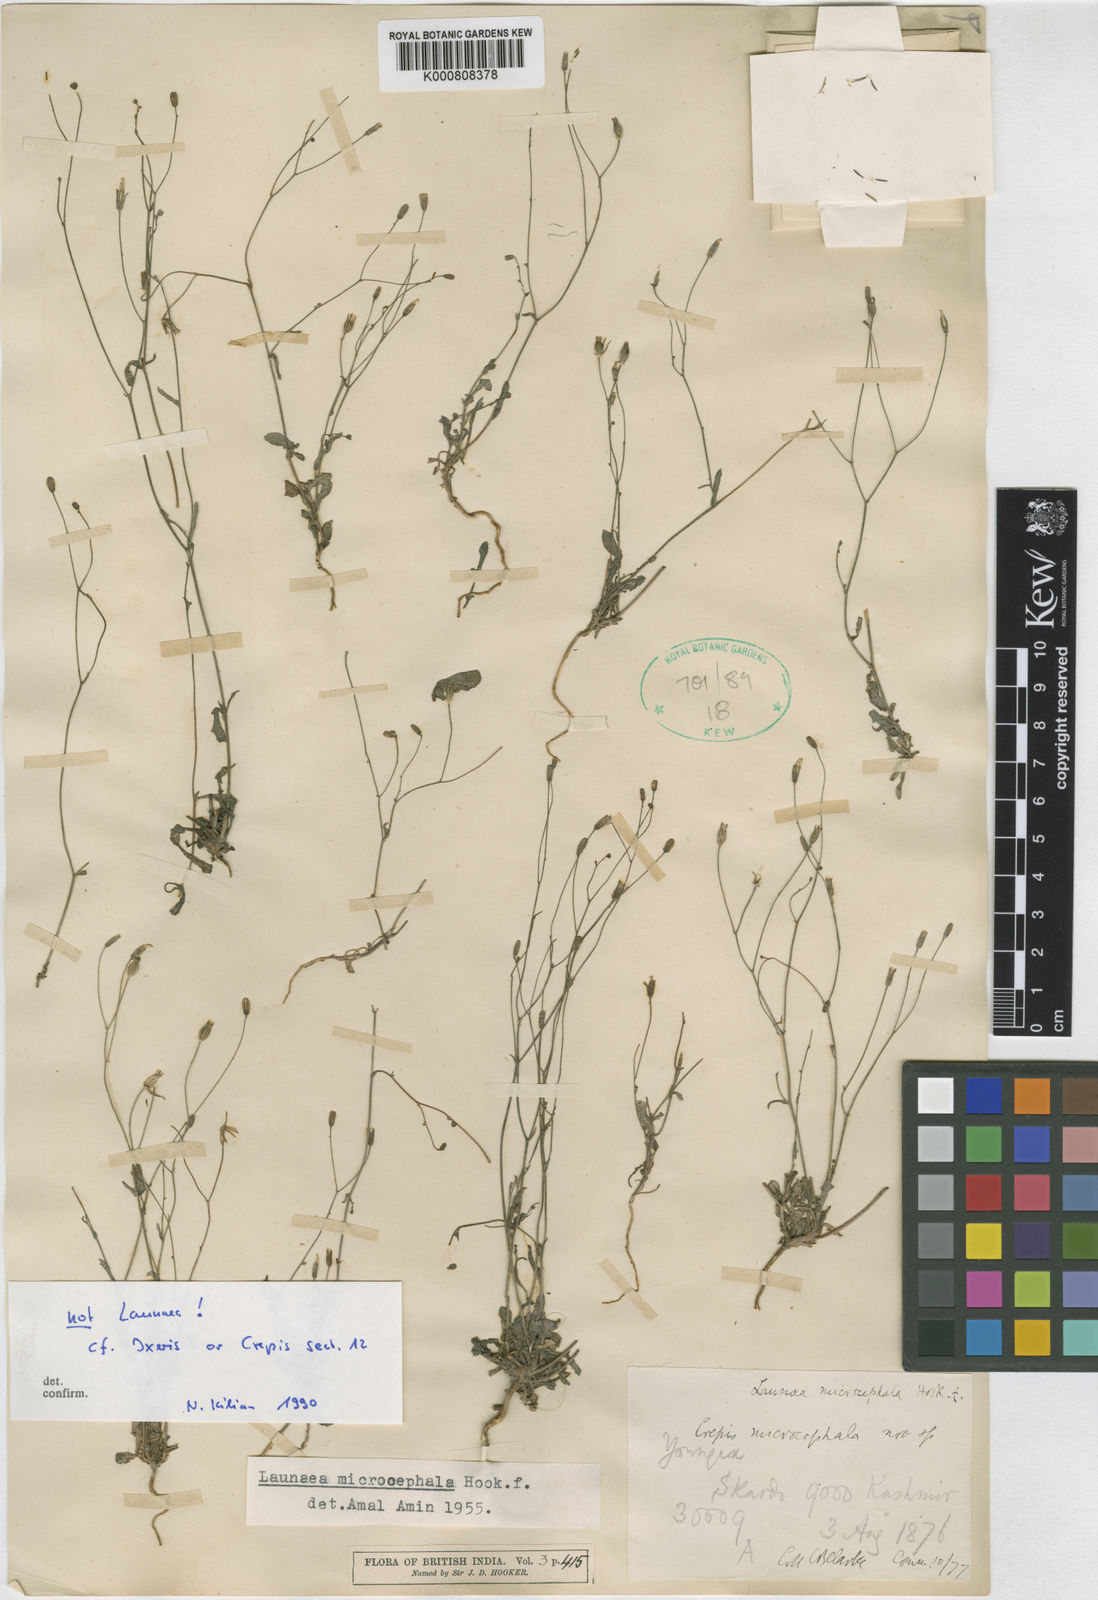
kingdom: Plantae
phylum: Tracheophyta
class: Magnoliopsida
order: Asterales
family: Asteraceae
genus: Ixeris
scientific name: Ixeris
